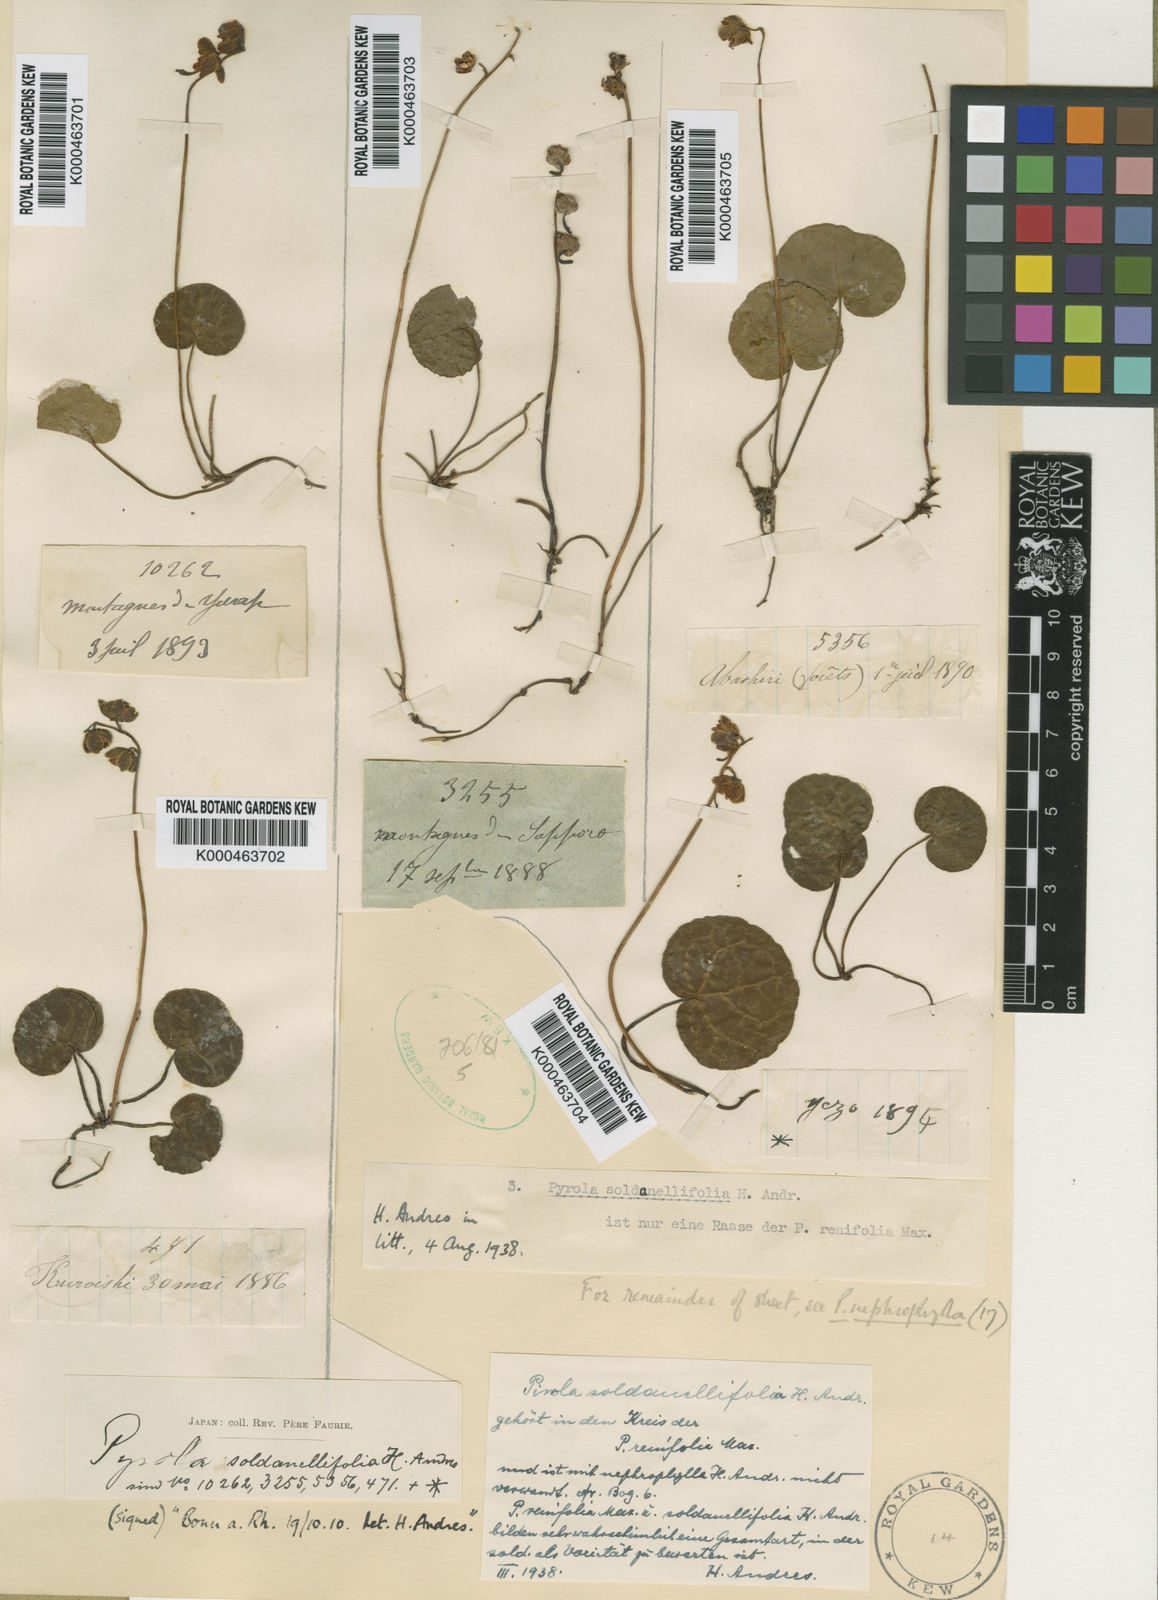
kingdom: Plantae
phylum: Tracheophyta
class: Magnoliopsida
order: Ericales
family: Ericaceae
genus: Pyrola
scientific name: Pyrola renifolia
